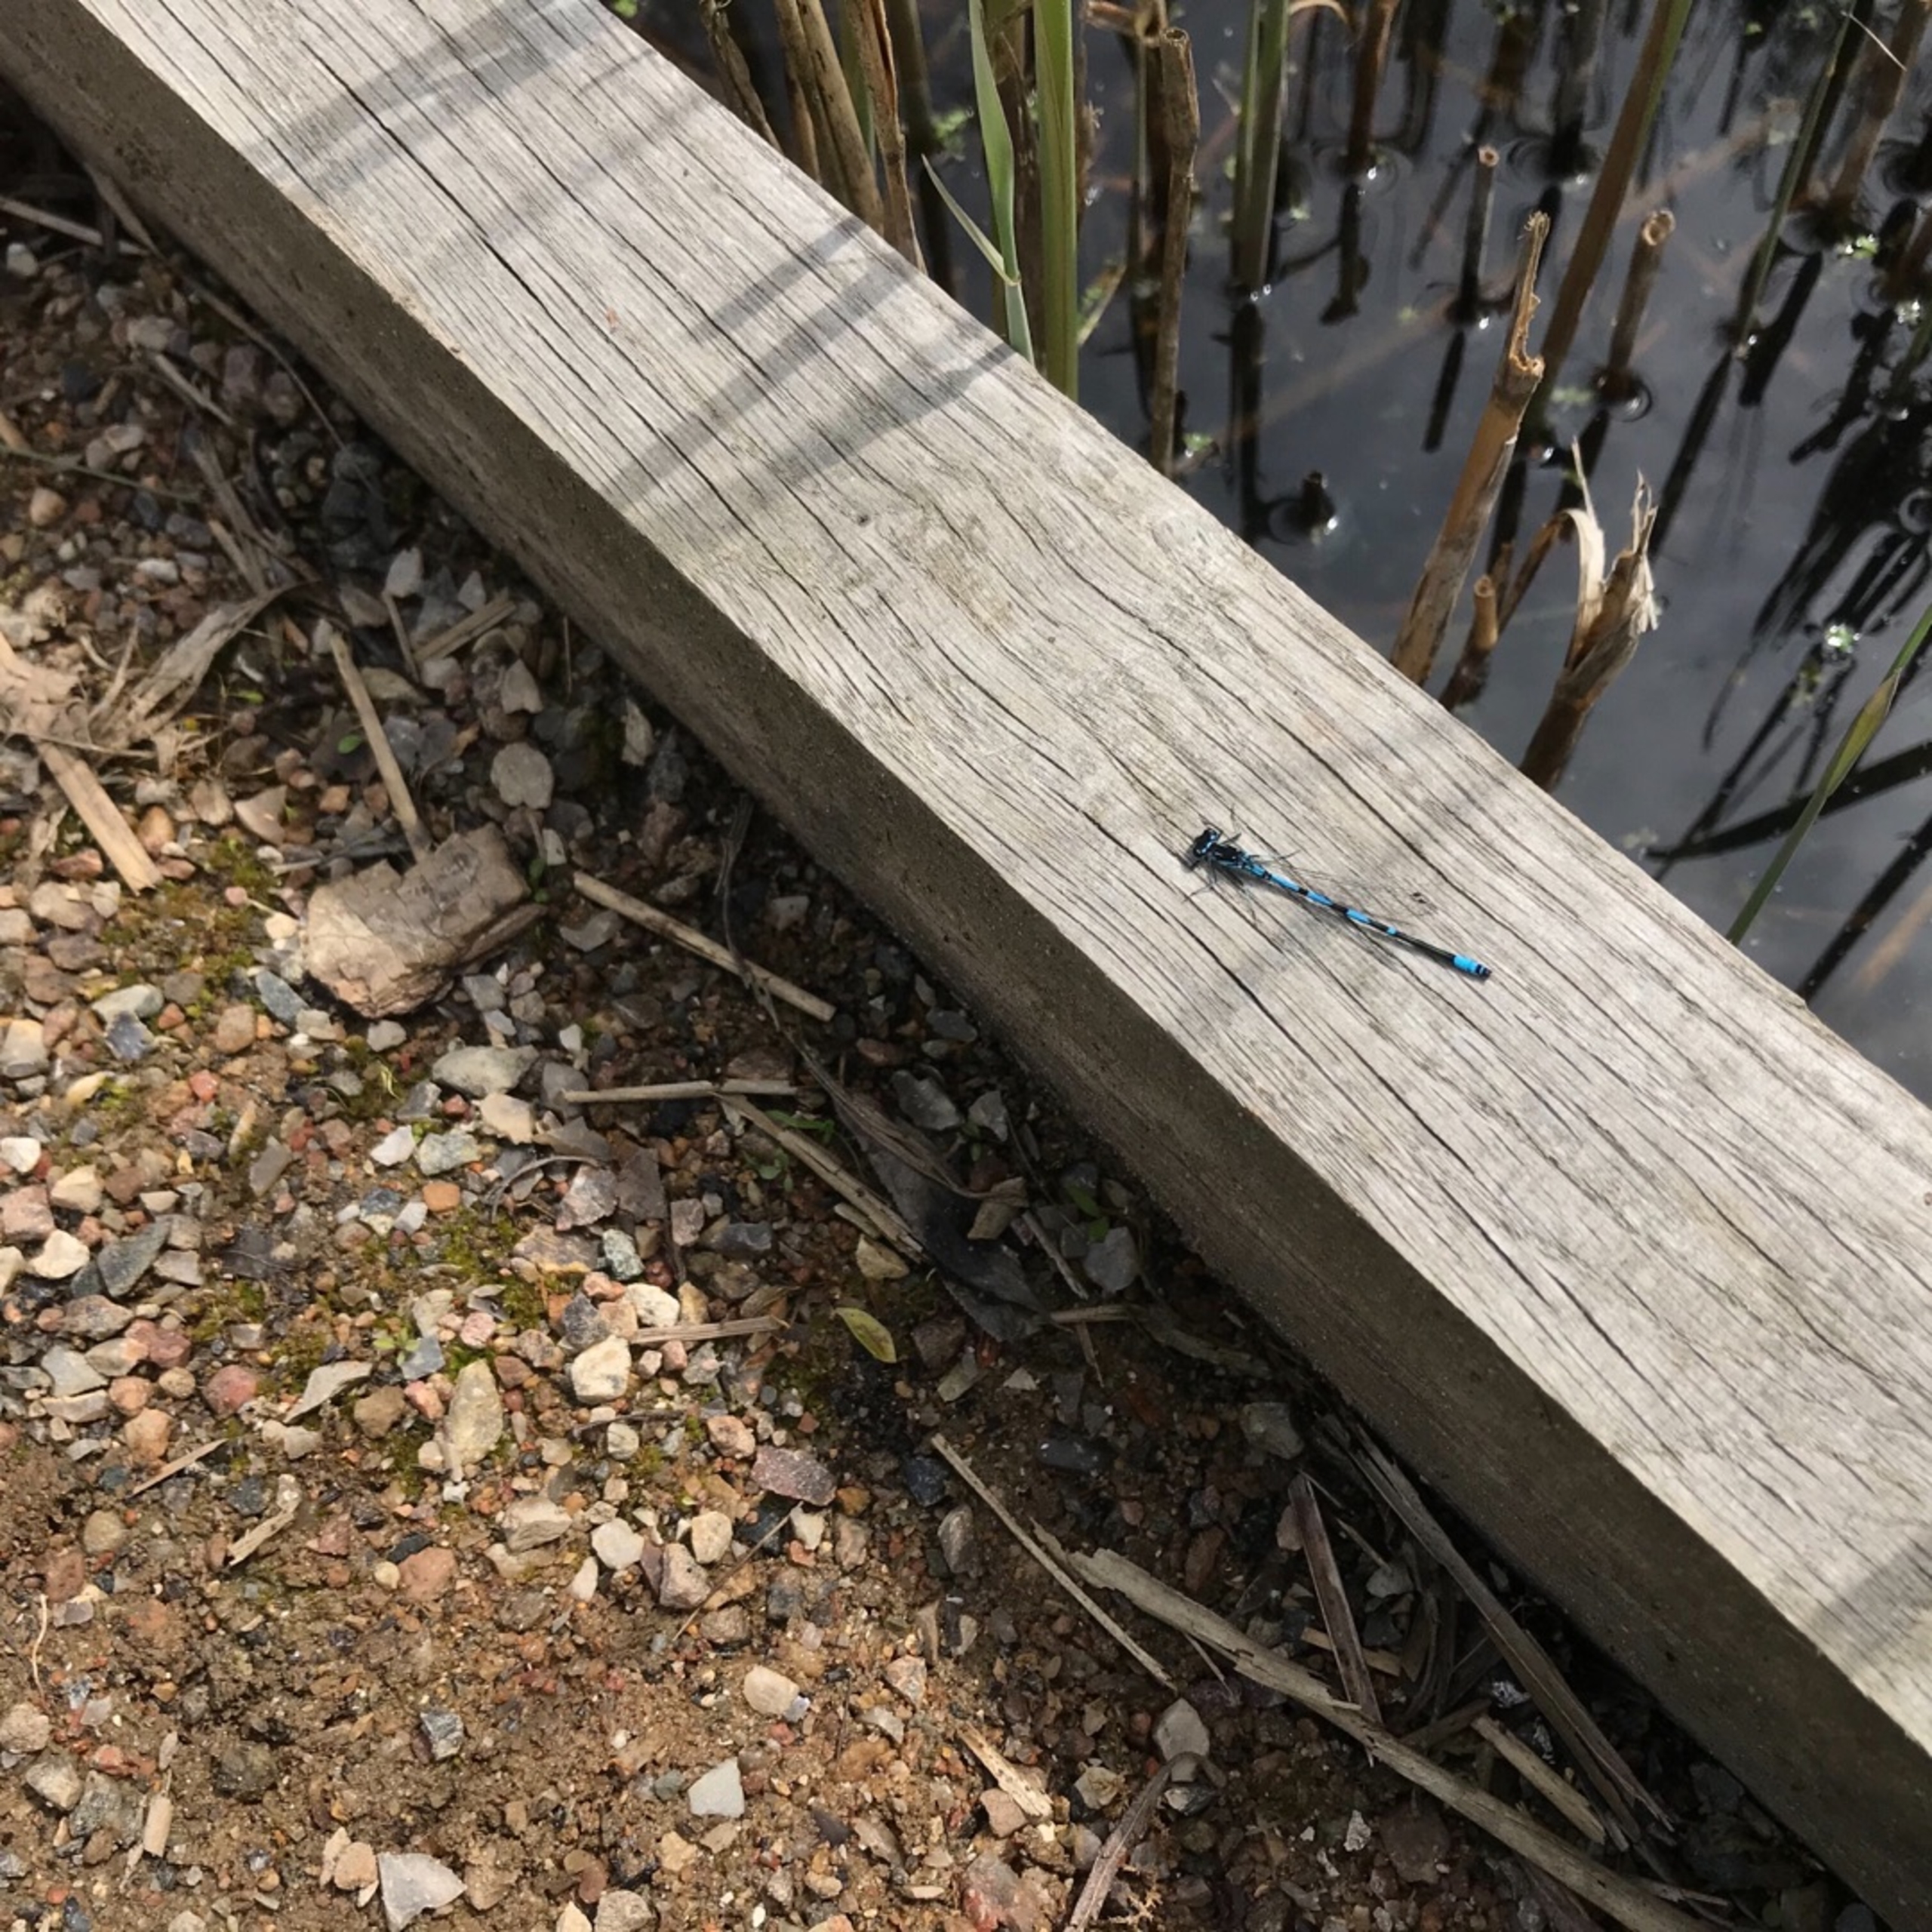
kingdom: Animalia
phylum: Arthropoda
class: Insecta
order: Odonata
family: Coenagrionidae
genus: Coenagrion
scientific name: Coenagrion pulchellum
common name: Flagermus-vandnymfe
